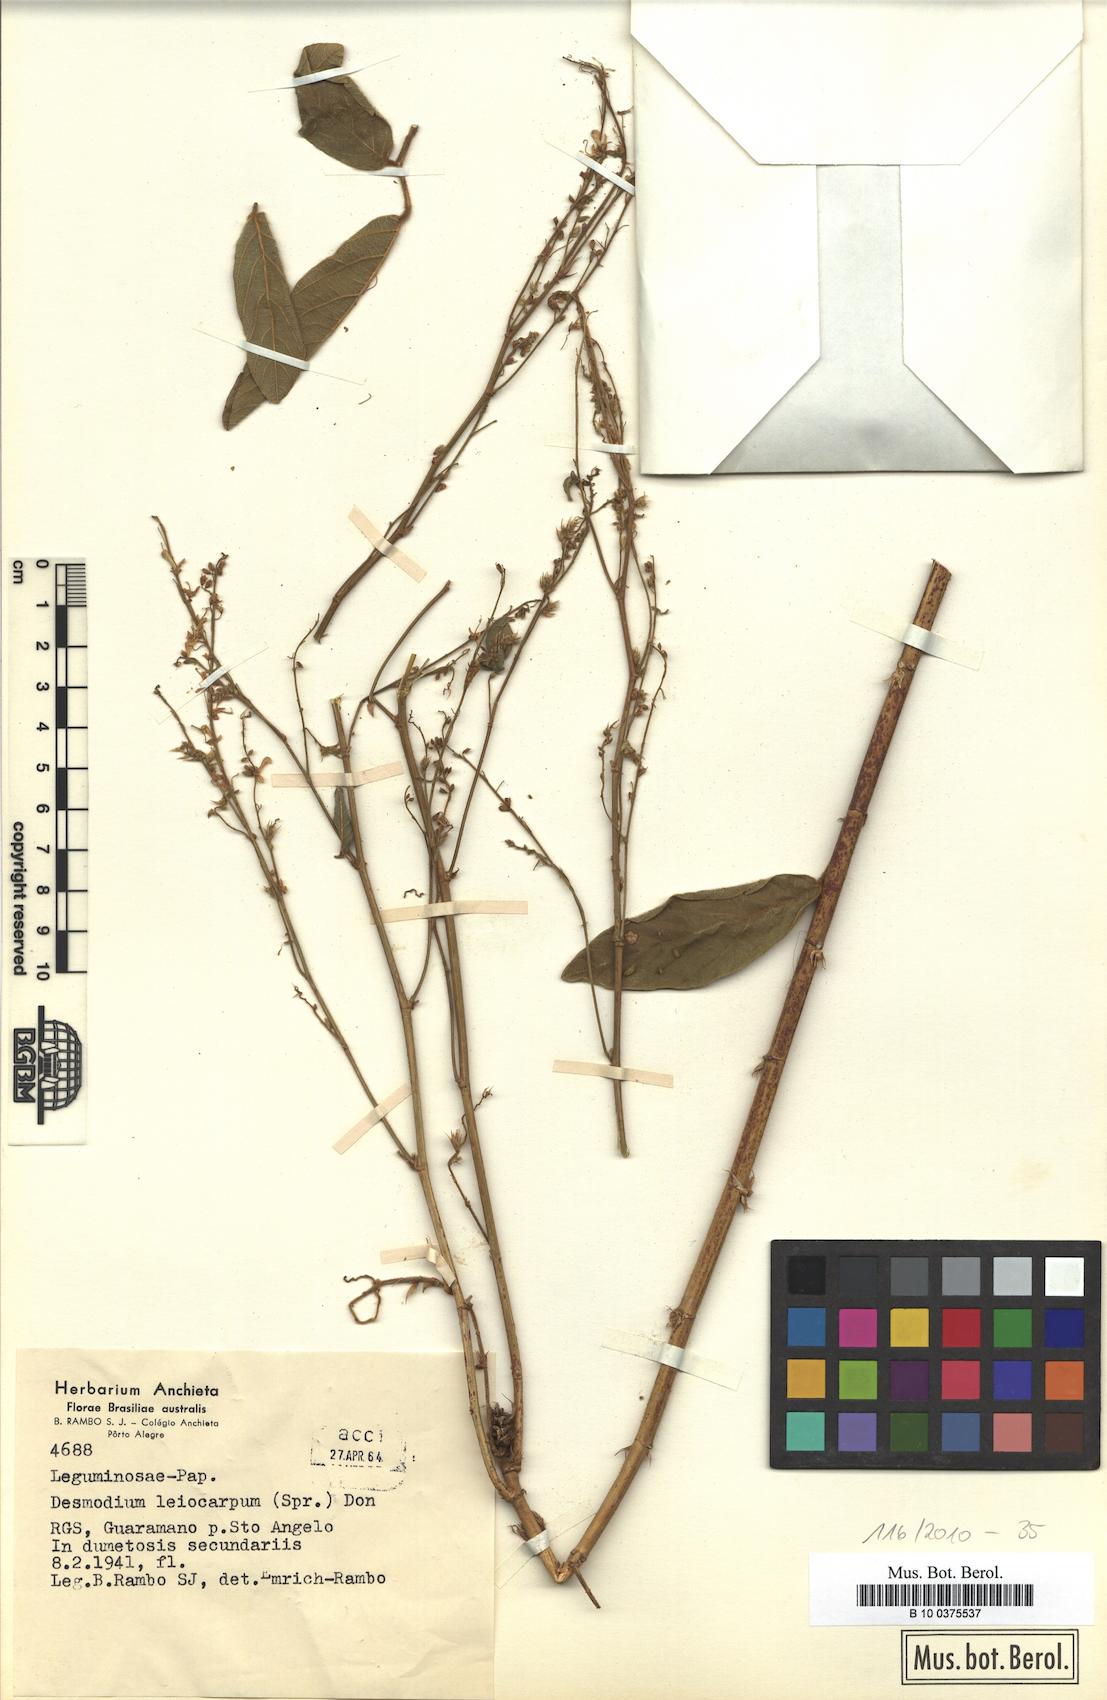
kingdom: Plantae
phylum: Tracheophyta
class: Magnoliopsida
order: Fabales
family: Fabaceae
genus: Desmodium
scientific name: Desmodium leiocarpum
